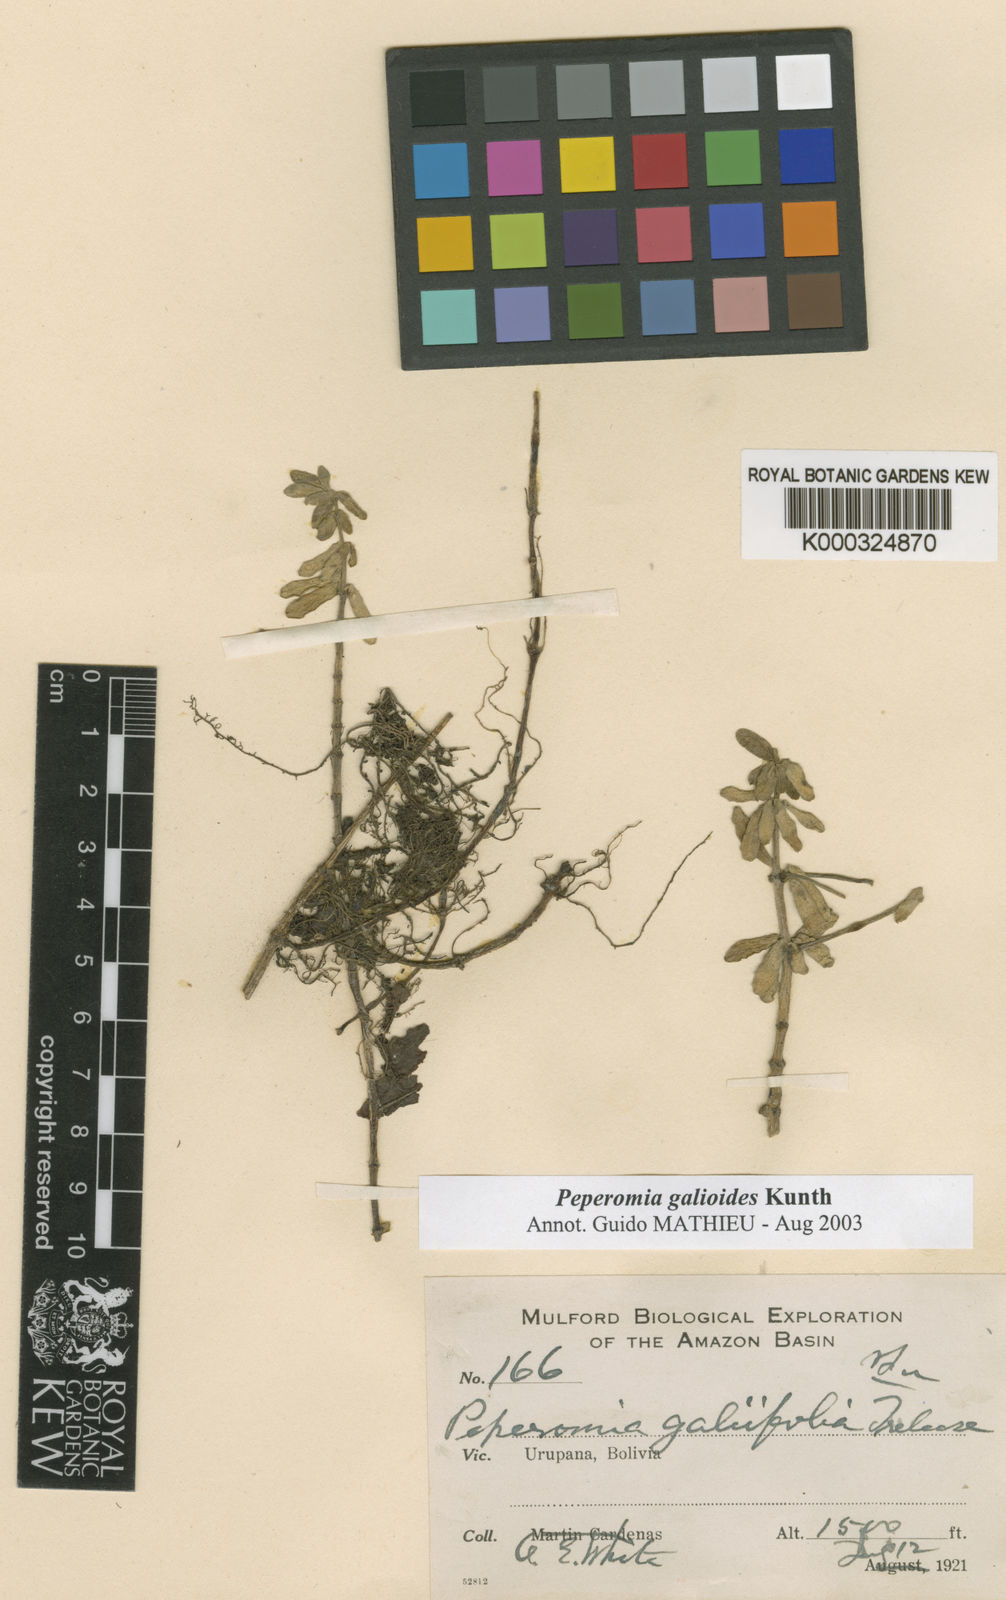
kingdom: Plantae
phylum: Tracheophyta
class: Magnoliopsida
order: Piperales
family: Piperaceae
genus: Peperomia
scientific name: Peperomia galioides
